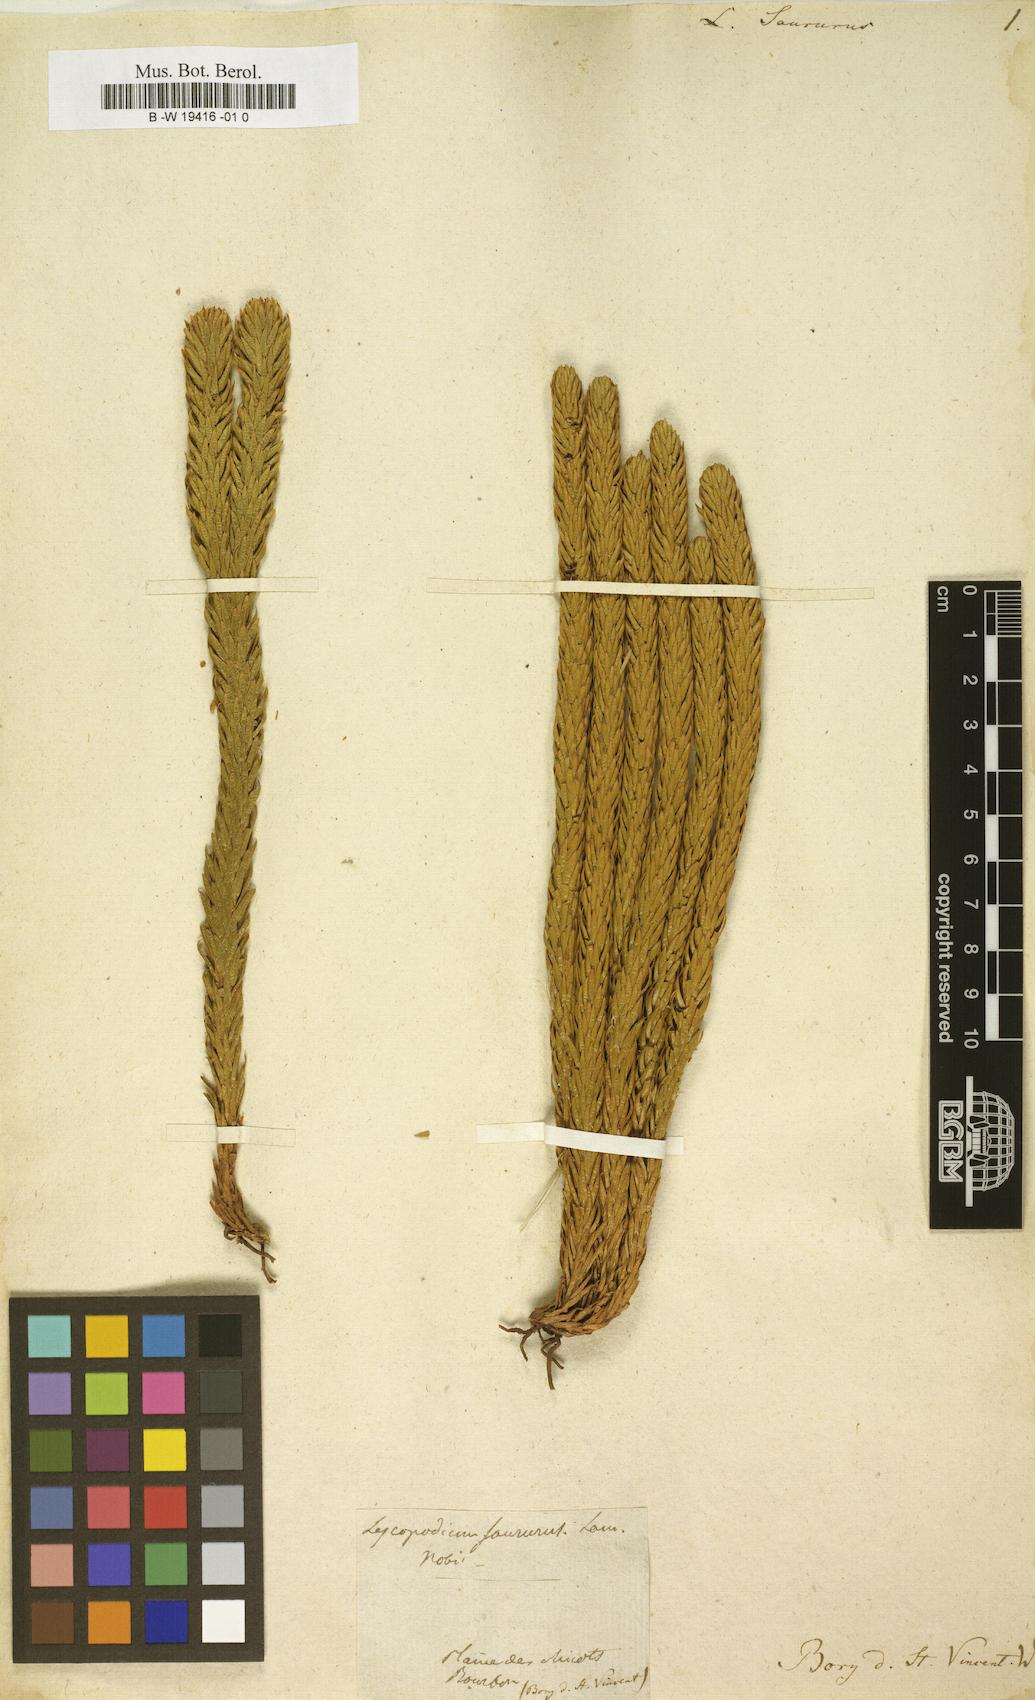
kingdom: Plantae
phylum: Tracheophyta
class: Lycopodiopsida
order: Lycopodiales
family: Lycopodiaceae
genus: Phlegmariurus
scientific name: Phlegmariurus saururus
